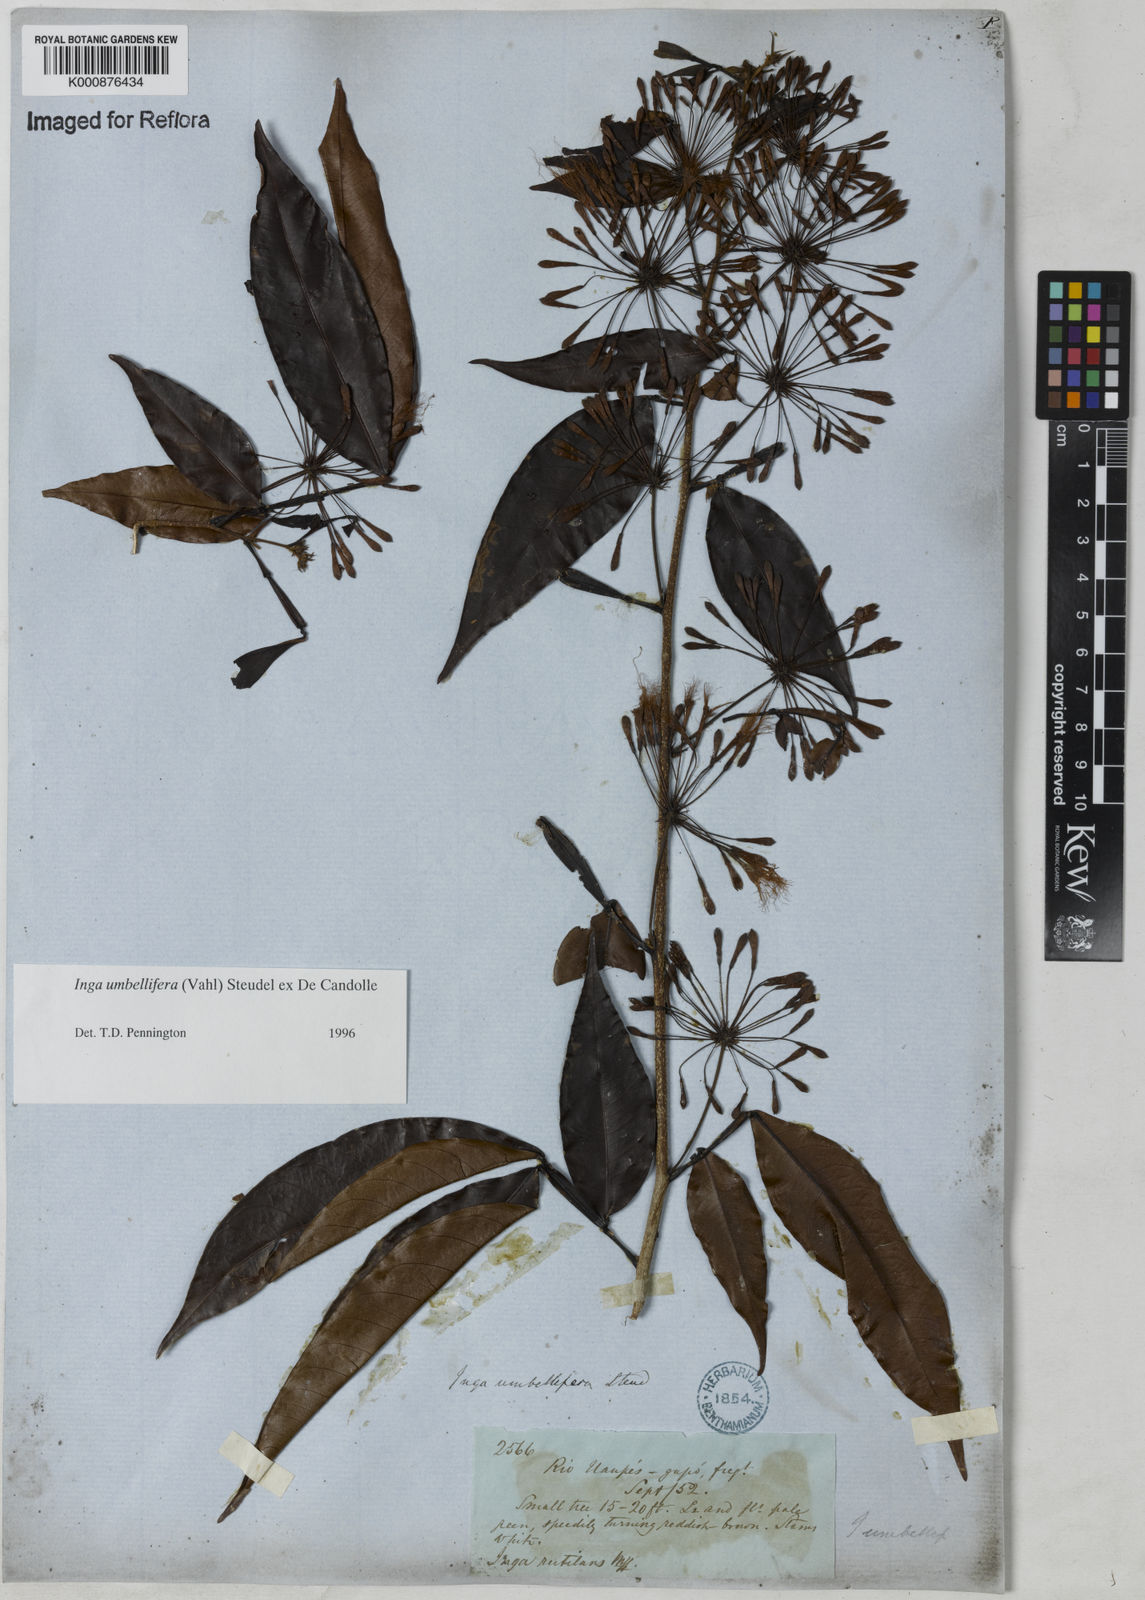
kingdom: Plantae
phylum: Tracheophyta
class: Magnoliopsida
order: Fabales
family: Fabaceae
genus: Inga
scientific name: Inga umbellifera
